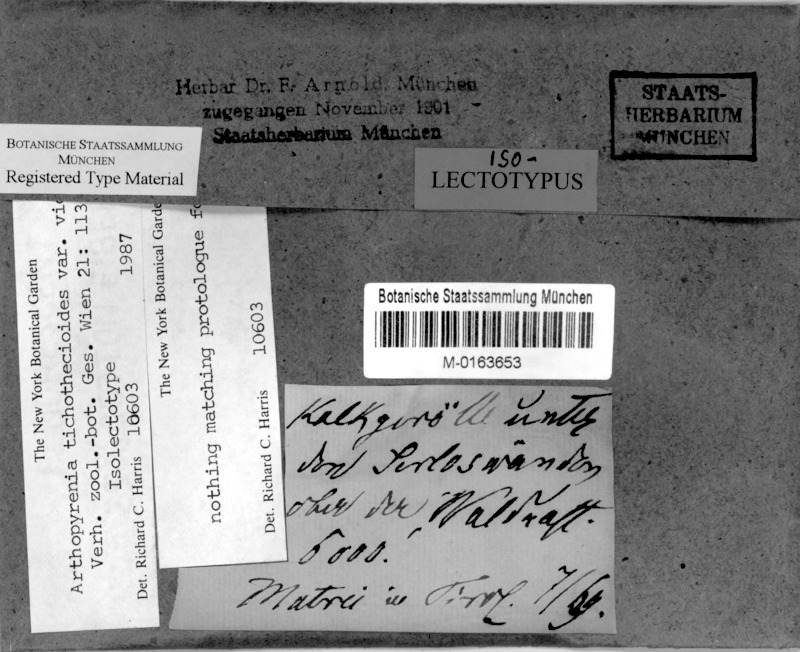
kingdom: Fungi
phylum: Ascomycota
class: Dothideomycetes
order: Capnodiales
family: Mycosphaerellaceae
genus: Stigmidium
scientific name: Stigmidium
